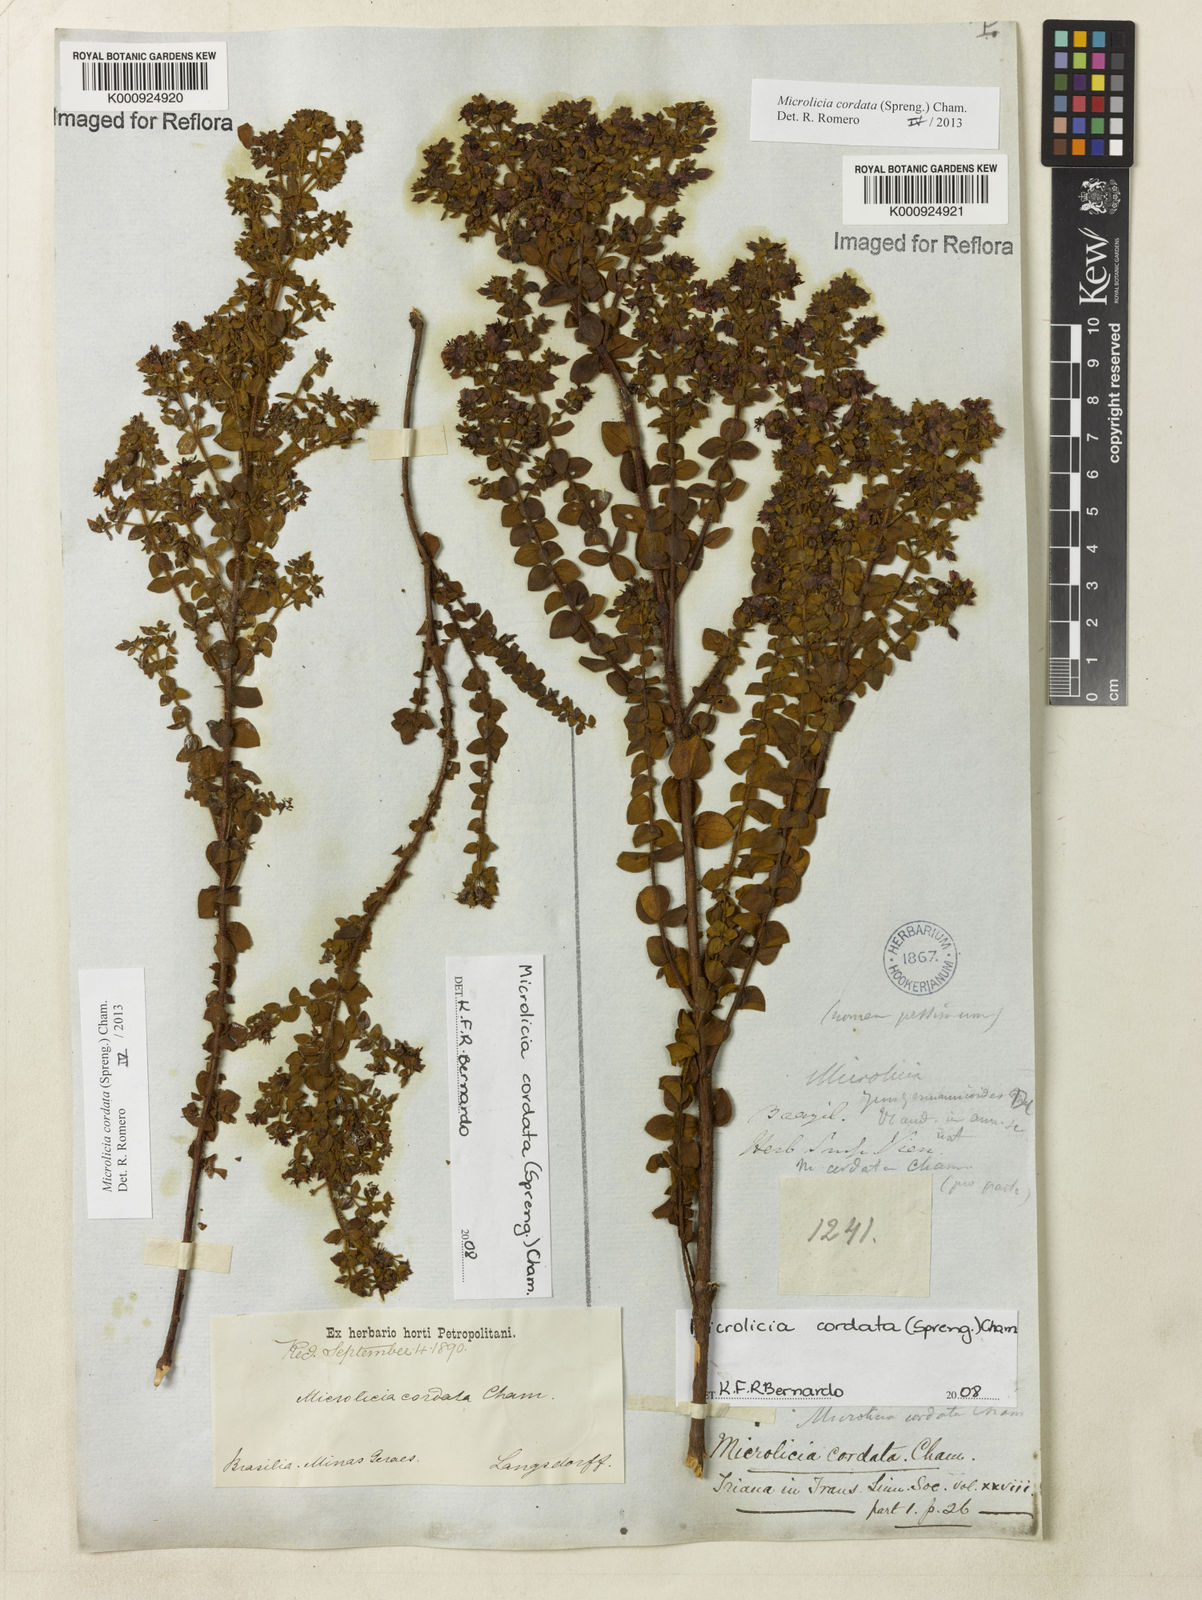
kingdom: Plantae
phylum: Tracheophyta
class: Magnoliopsida
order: Myrtales
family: Melastomataceae
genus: Microlicia
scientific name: Microlicia cordata
